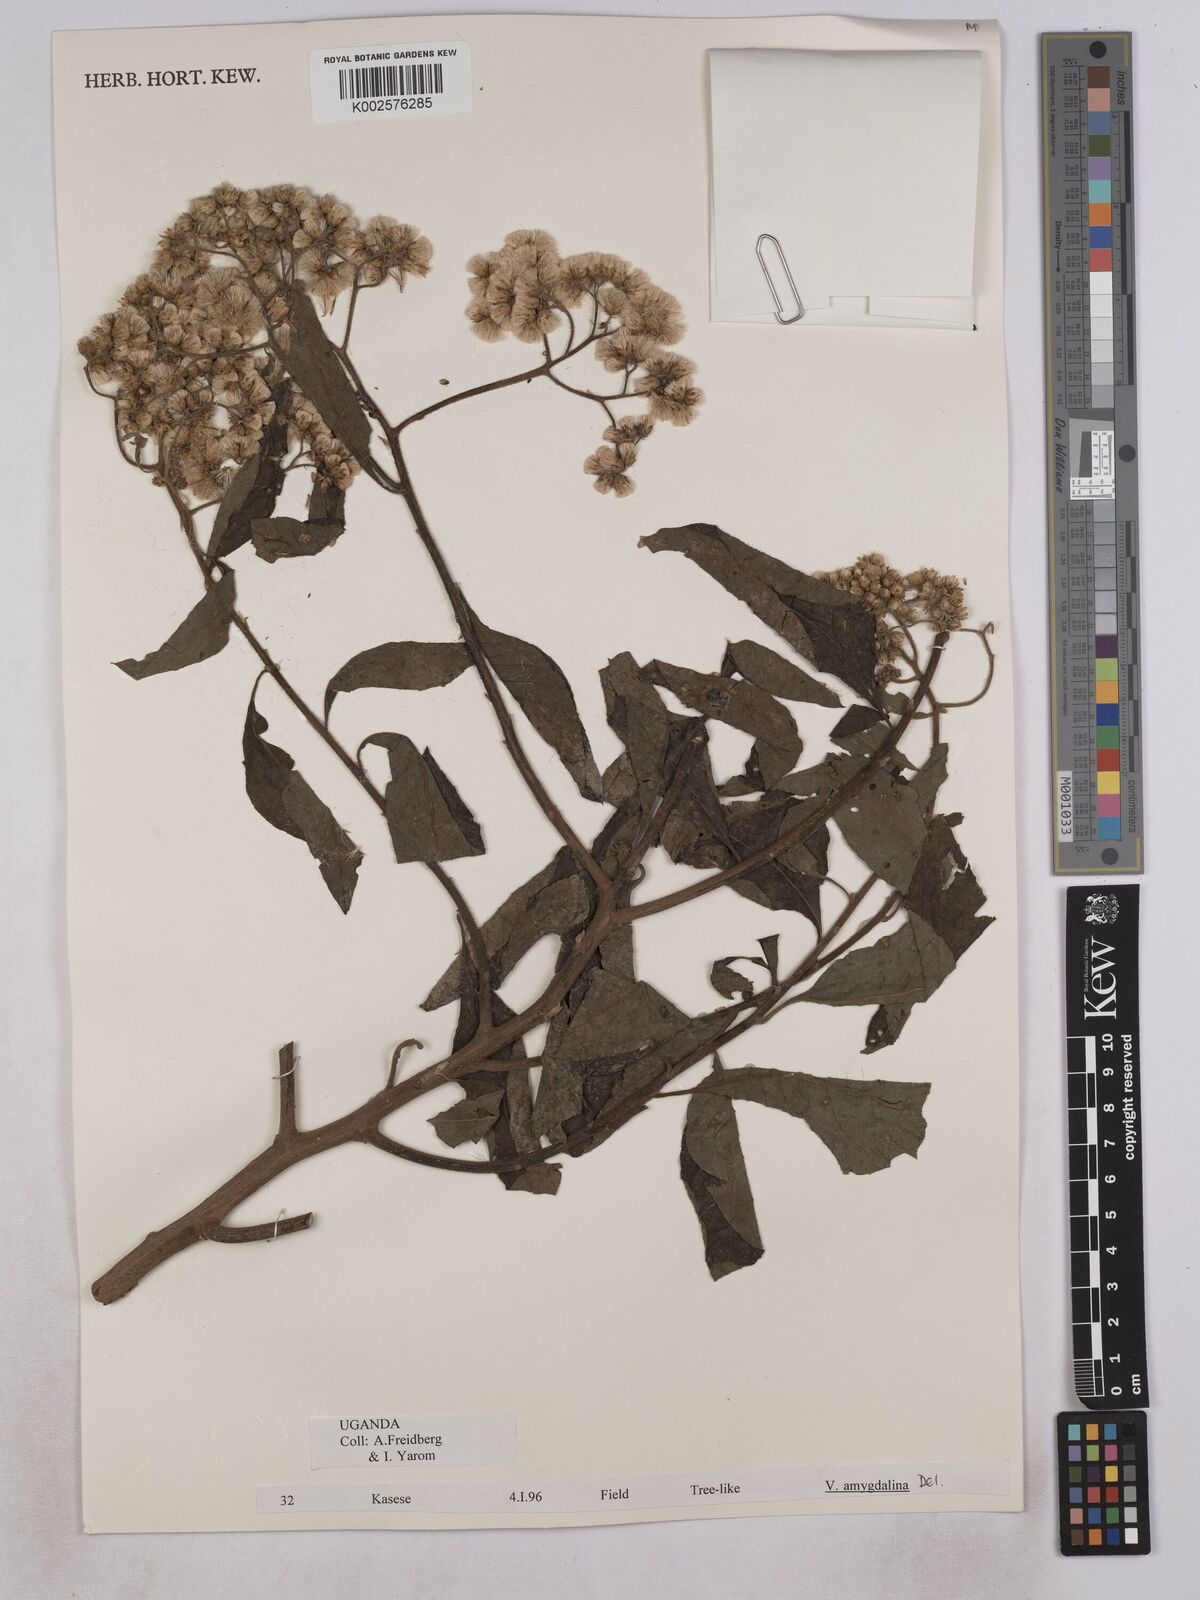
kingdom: Plantae
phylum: Tracheophyta
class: Magnoliopsida
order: Asterales
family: Asteraceae
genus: Gymnanthemum
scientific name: Gymnanthemum amygdalinum
